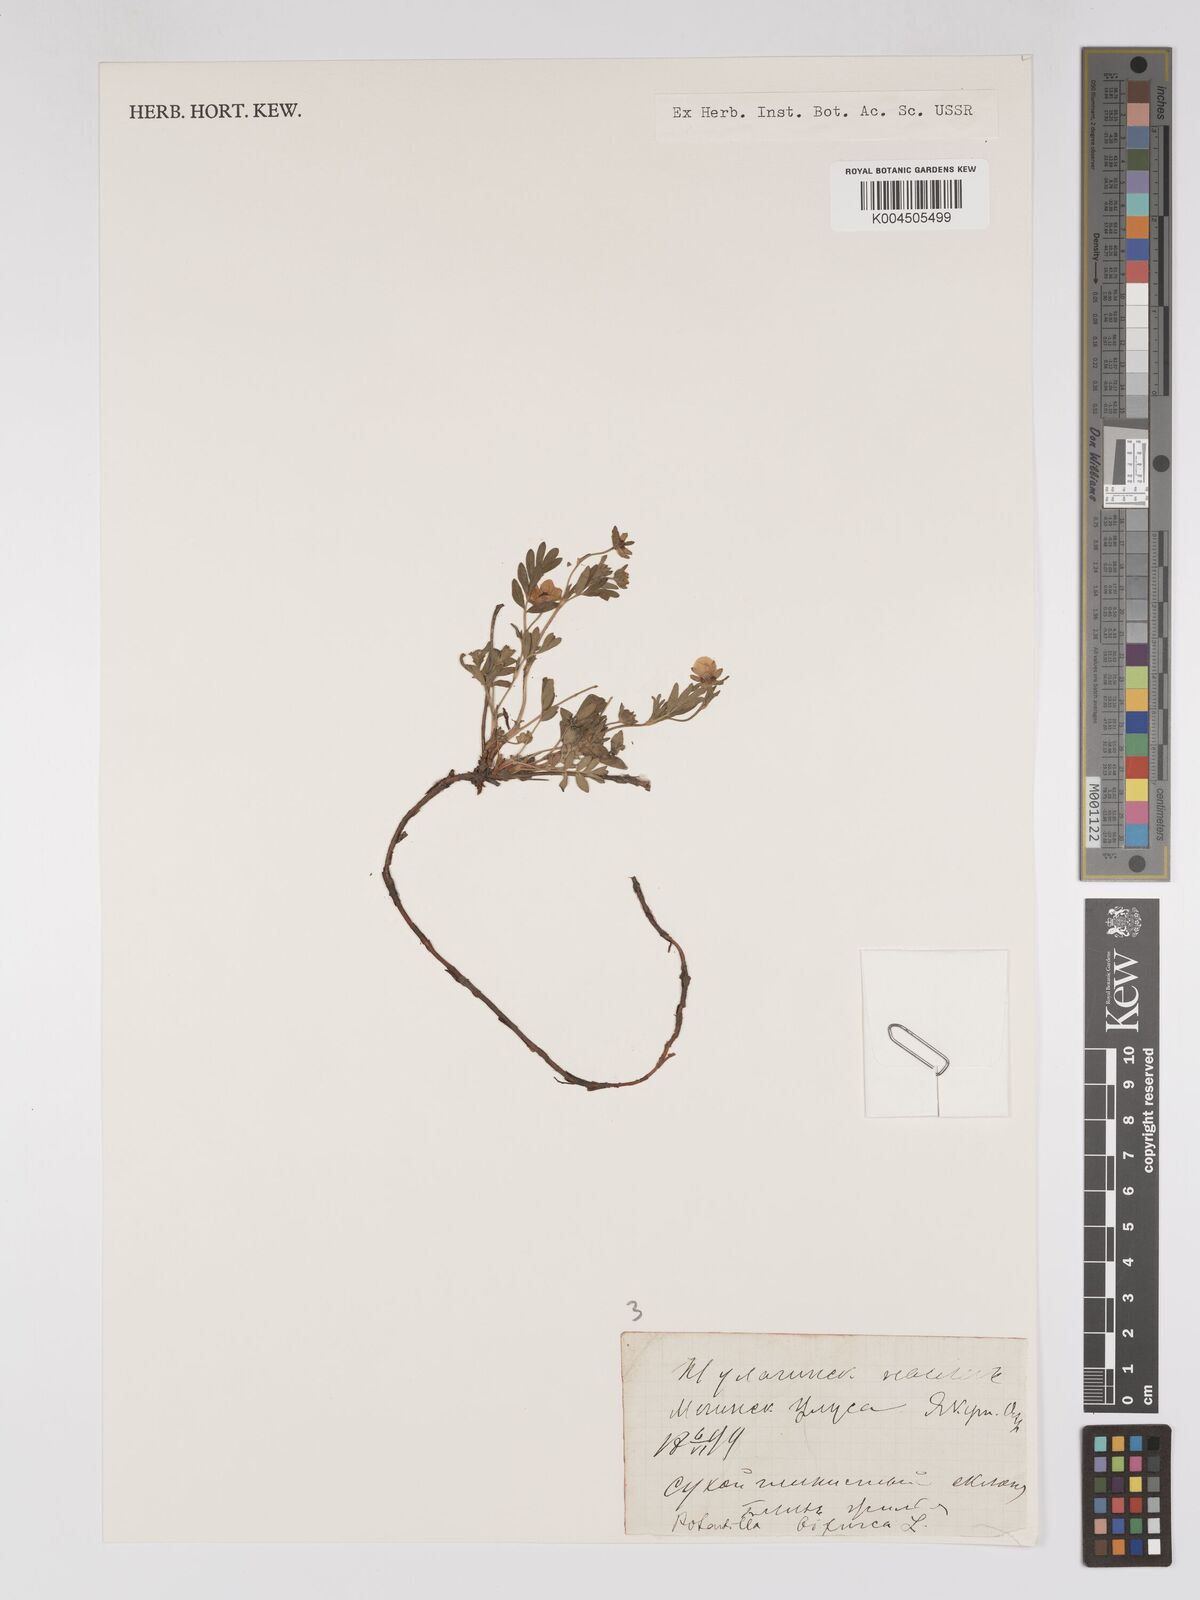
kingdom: Plantae
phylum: Tracheophyta
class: Magnoliopsida
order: Rosales
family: Rosaceae
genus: Sibbaldianthe
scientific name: Sibbaldianthe bifurca
